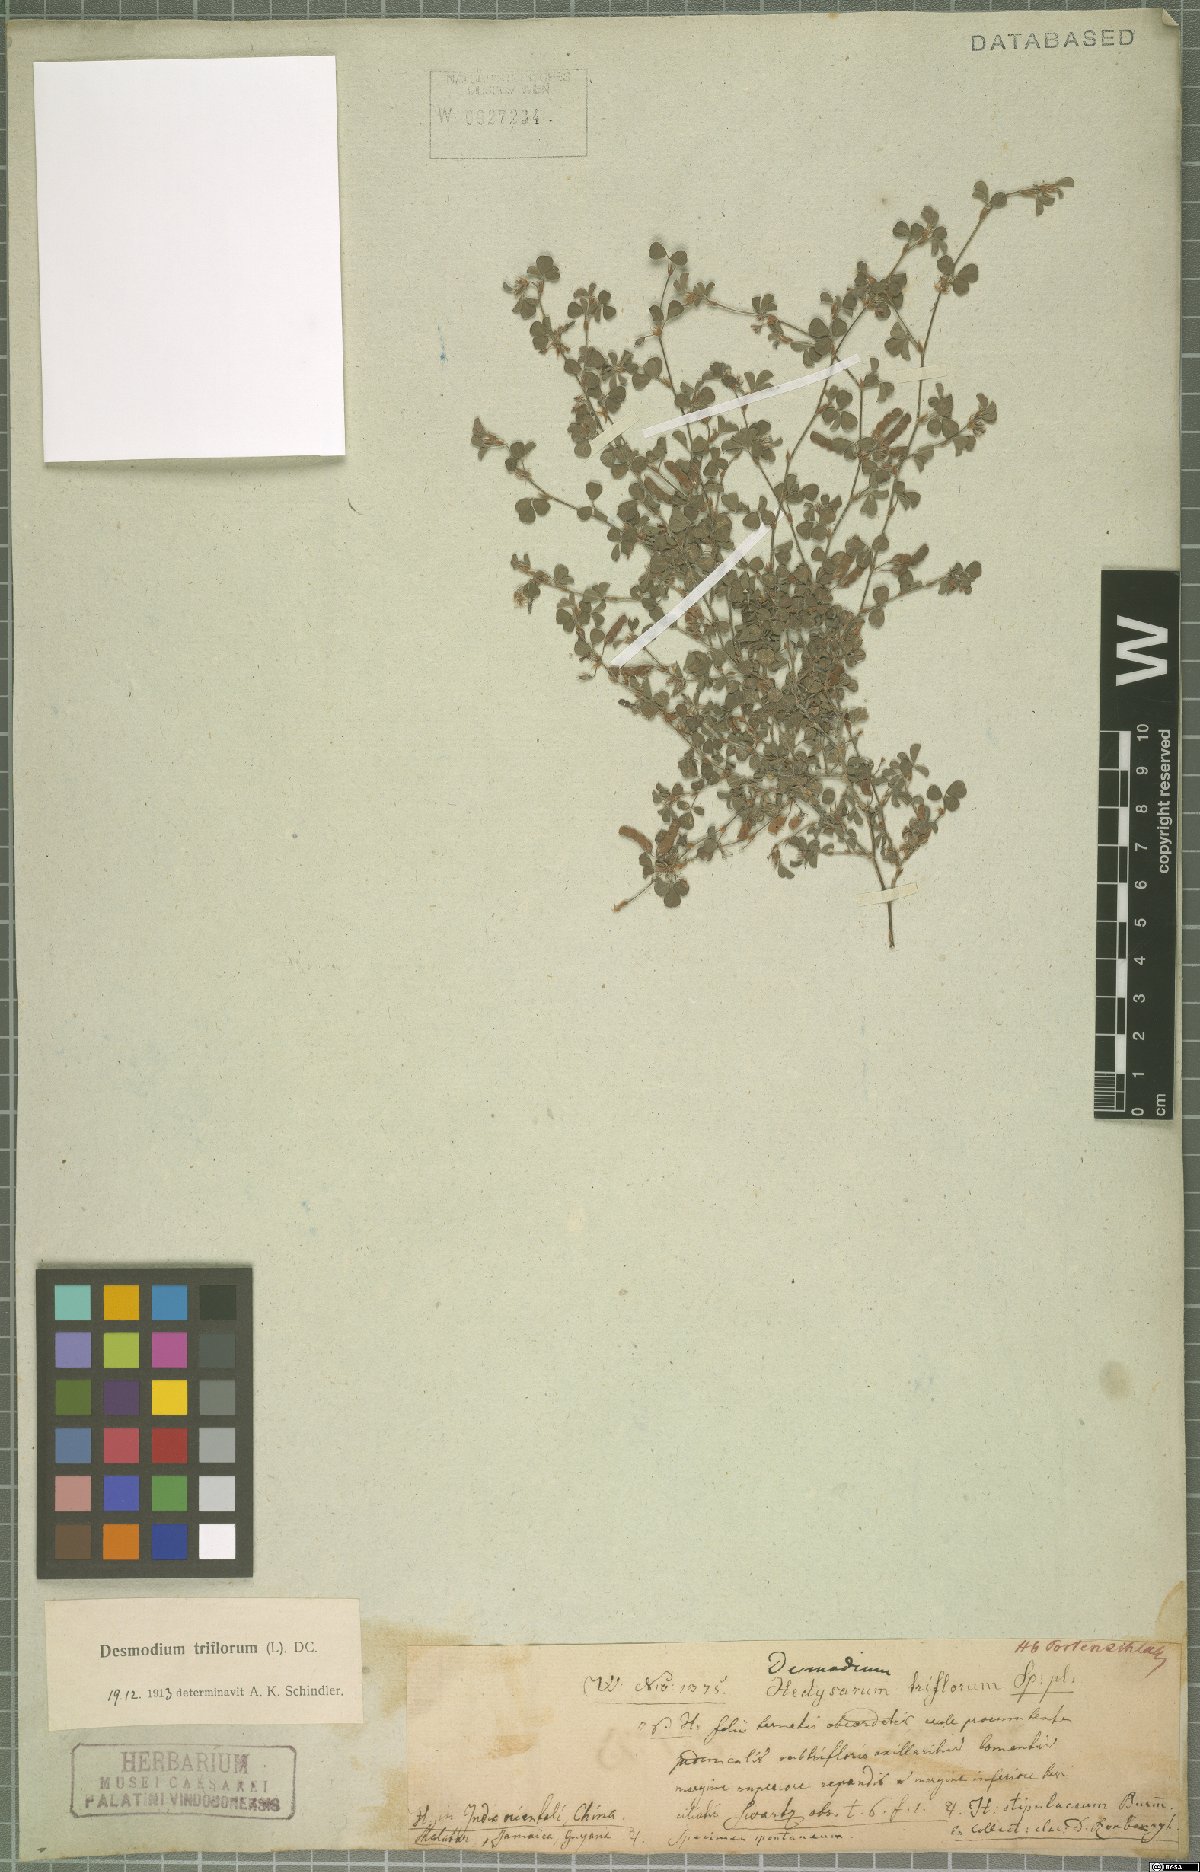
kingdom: Plantae
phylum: Tracheophyta
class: Magnoliopsida
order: Fabales
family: Fabaceae
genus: Grona
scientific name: Grona triflora
